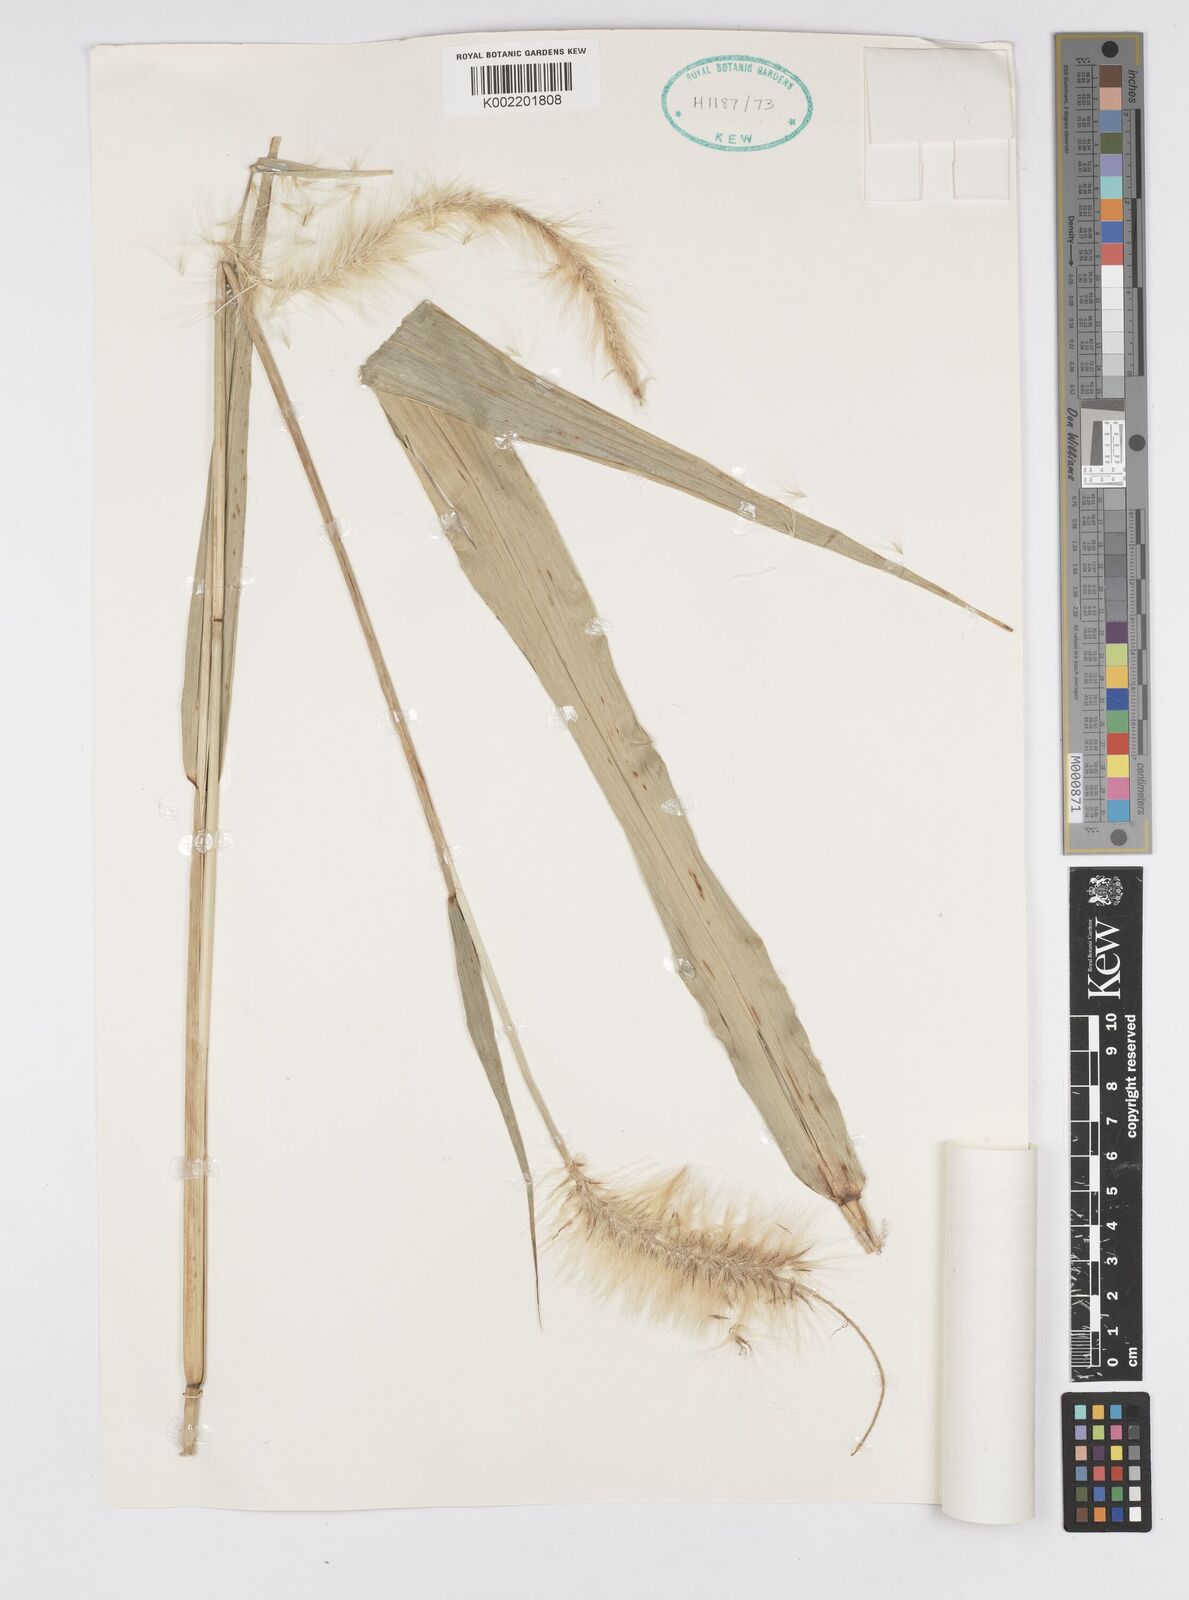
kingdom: Plantae
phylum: Tracheophyta
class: Liliopsida
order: Poales
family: Poaceae
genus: Cenchrus
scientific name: Cenchrus purpureus
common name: Elephant grass
